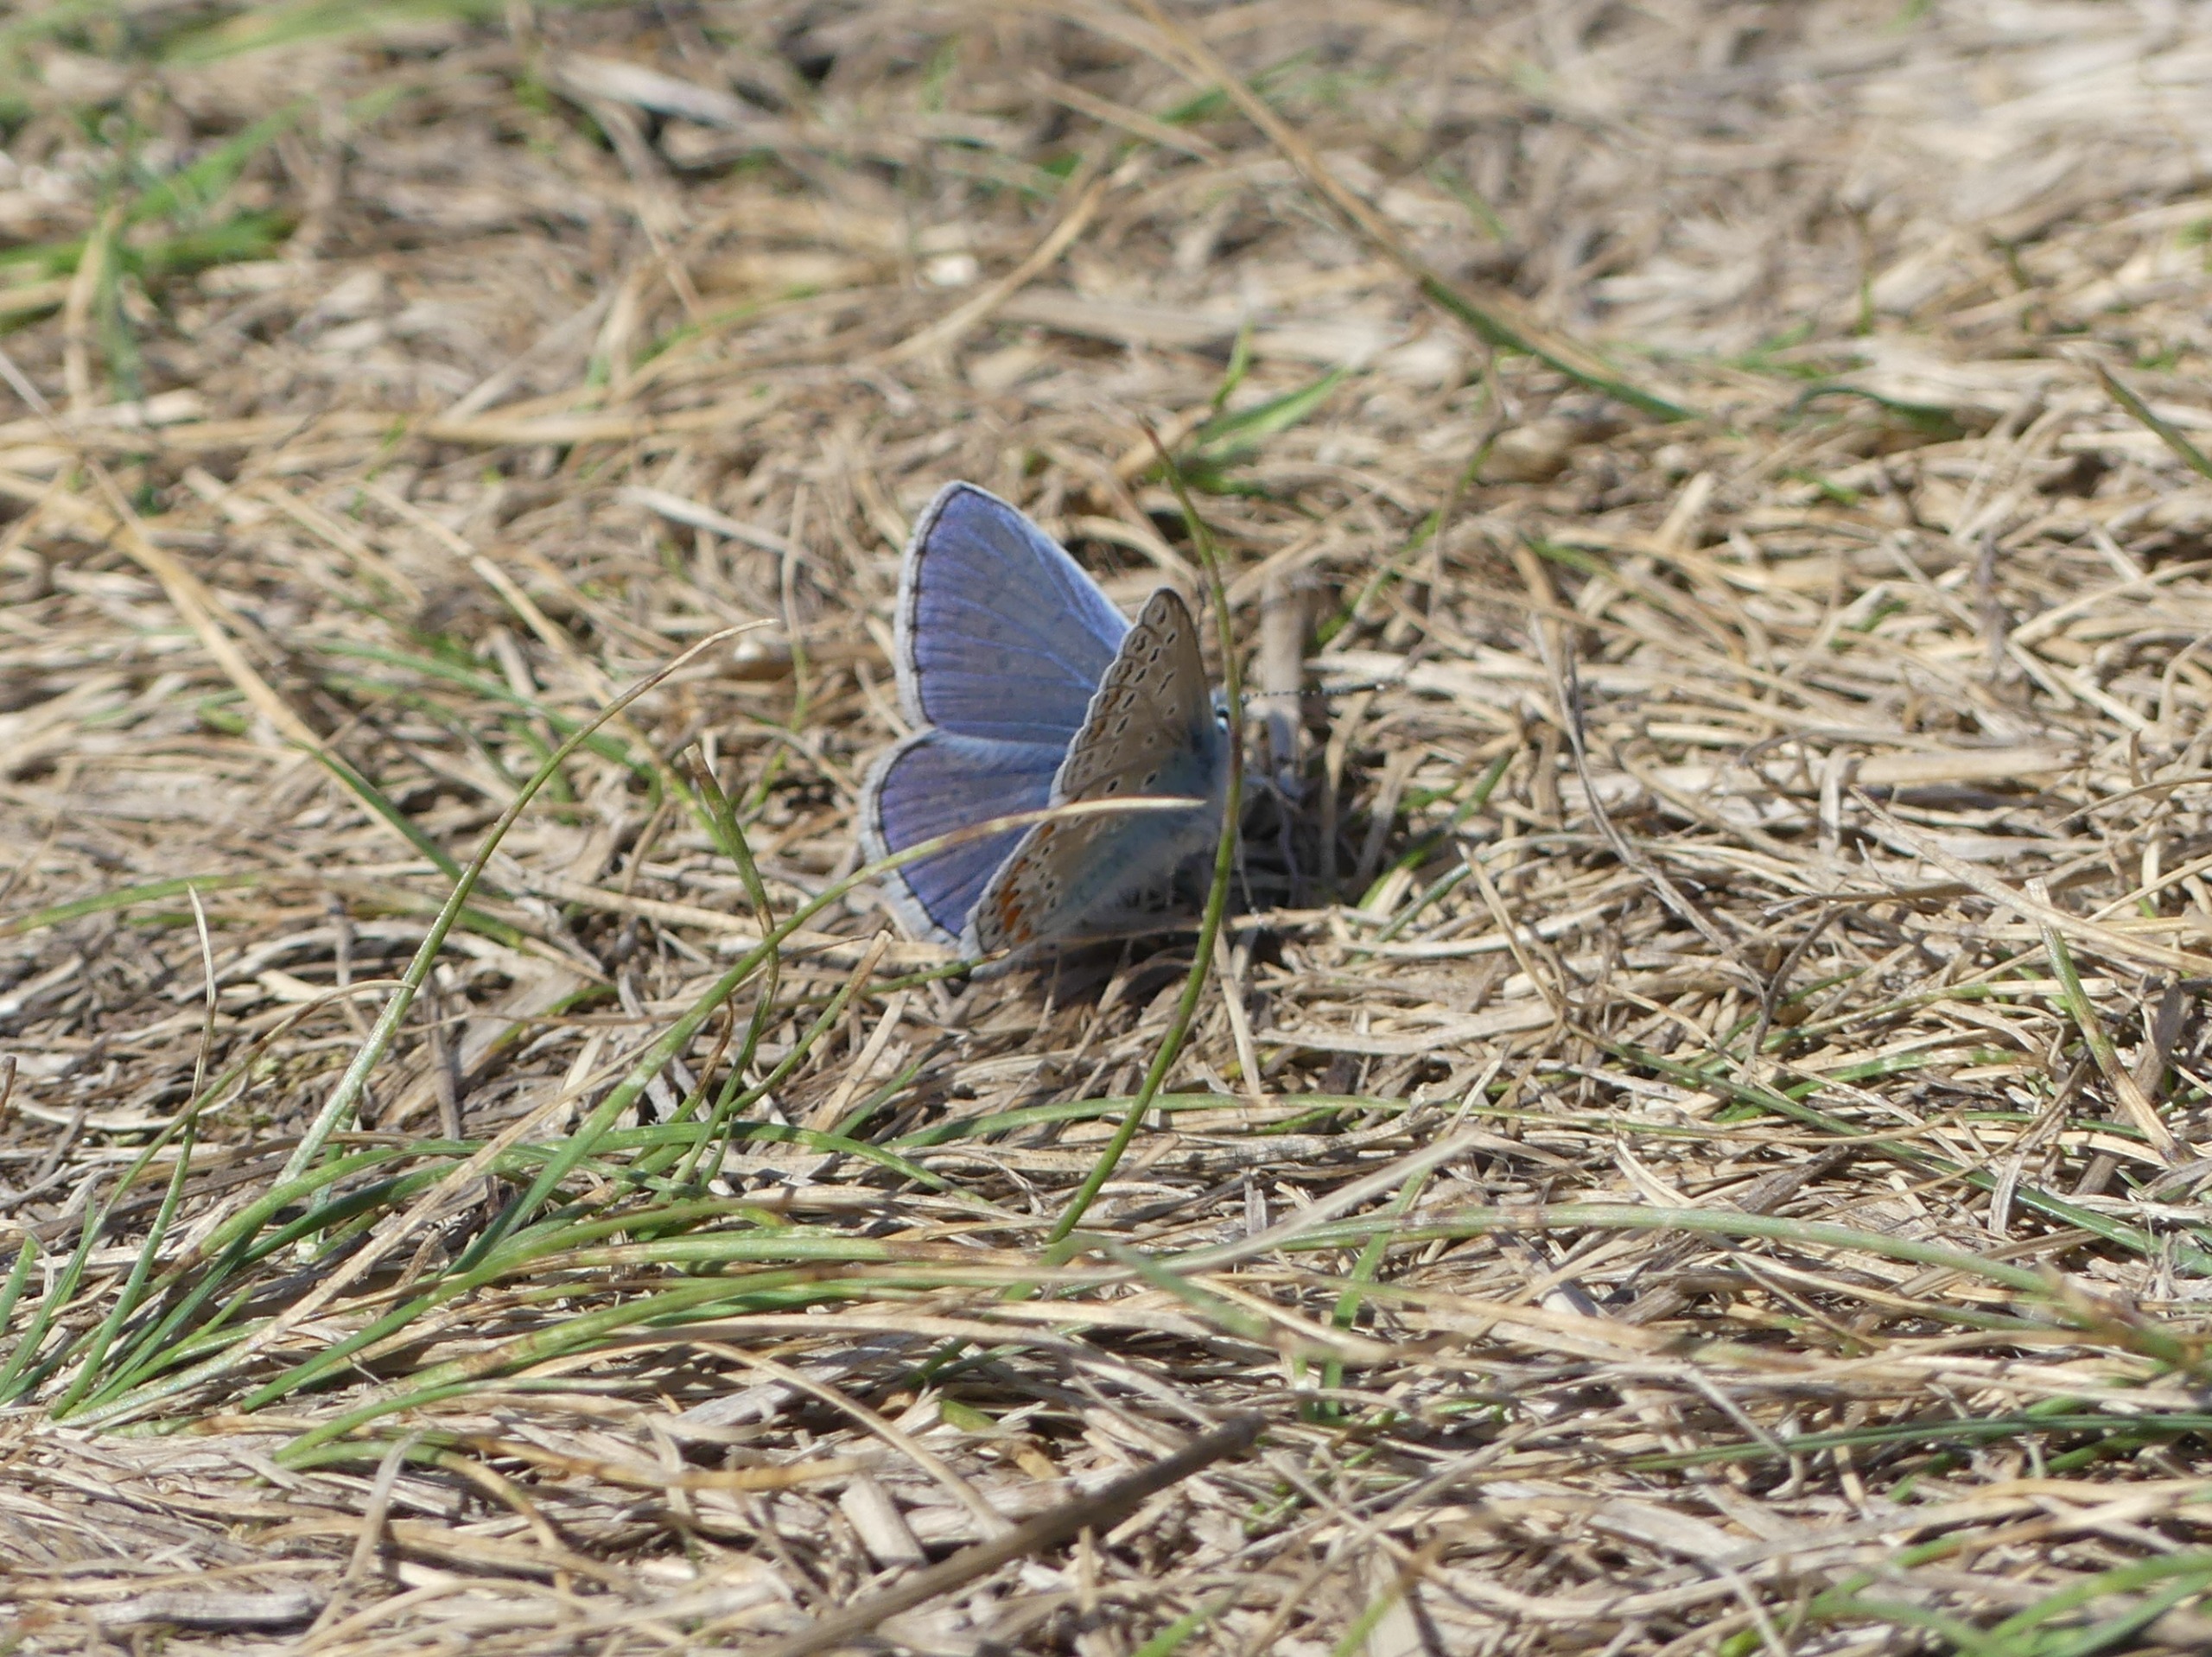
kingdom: Animalia
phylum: Arthropoda
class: Insecta
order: Lepidoptera
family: Lycaenidae
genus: Polyommatus
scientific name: Polyommatus icarus
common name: Almindelig blåfugl
